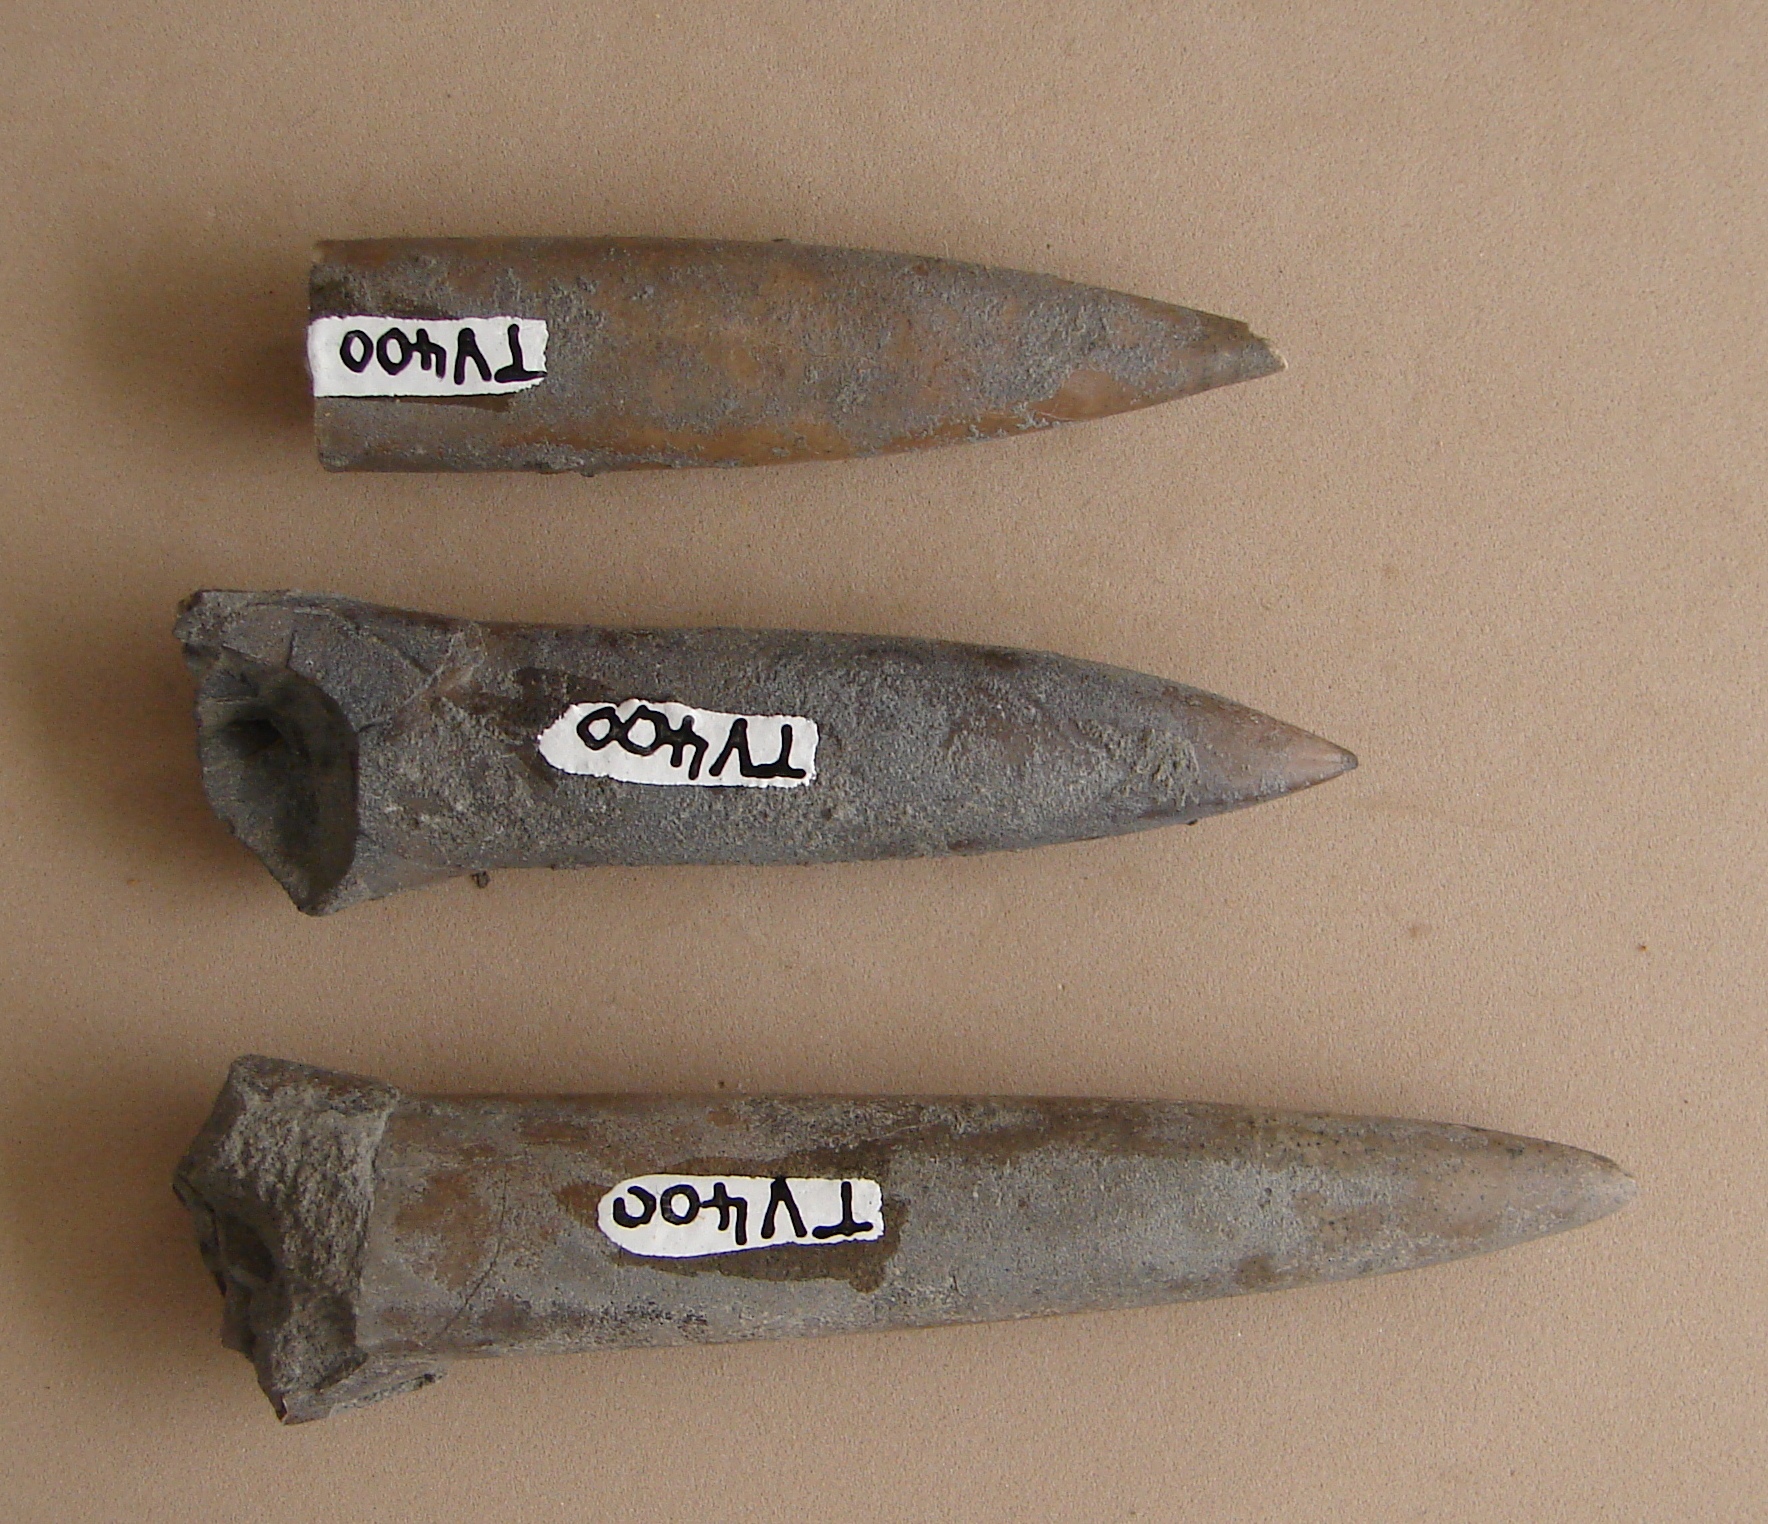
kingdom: Animalia
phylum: Mollusca
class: Cephalopoda
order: Belemnitida
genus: Simpsonibelus
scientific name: Simpsonibelus
